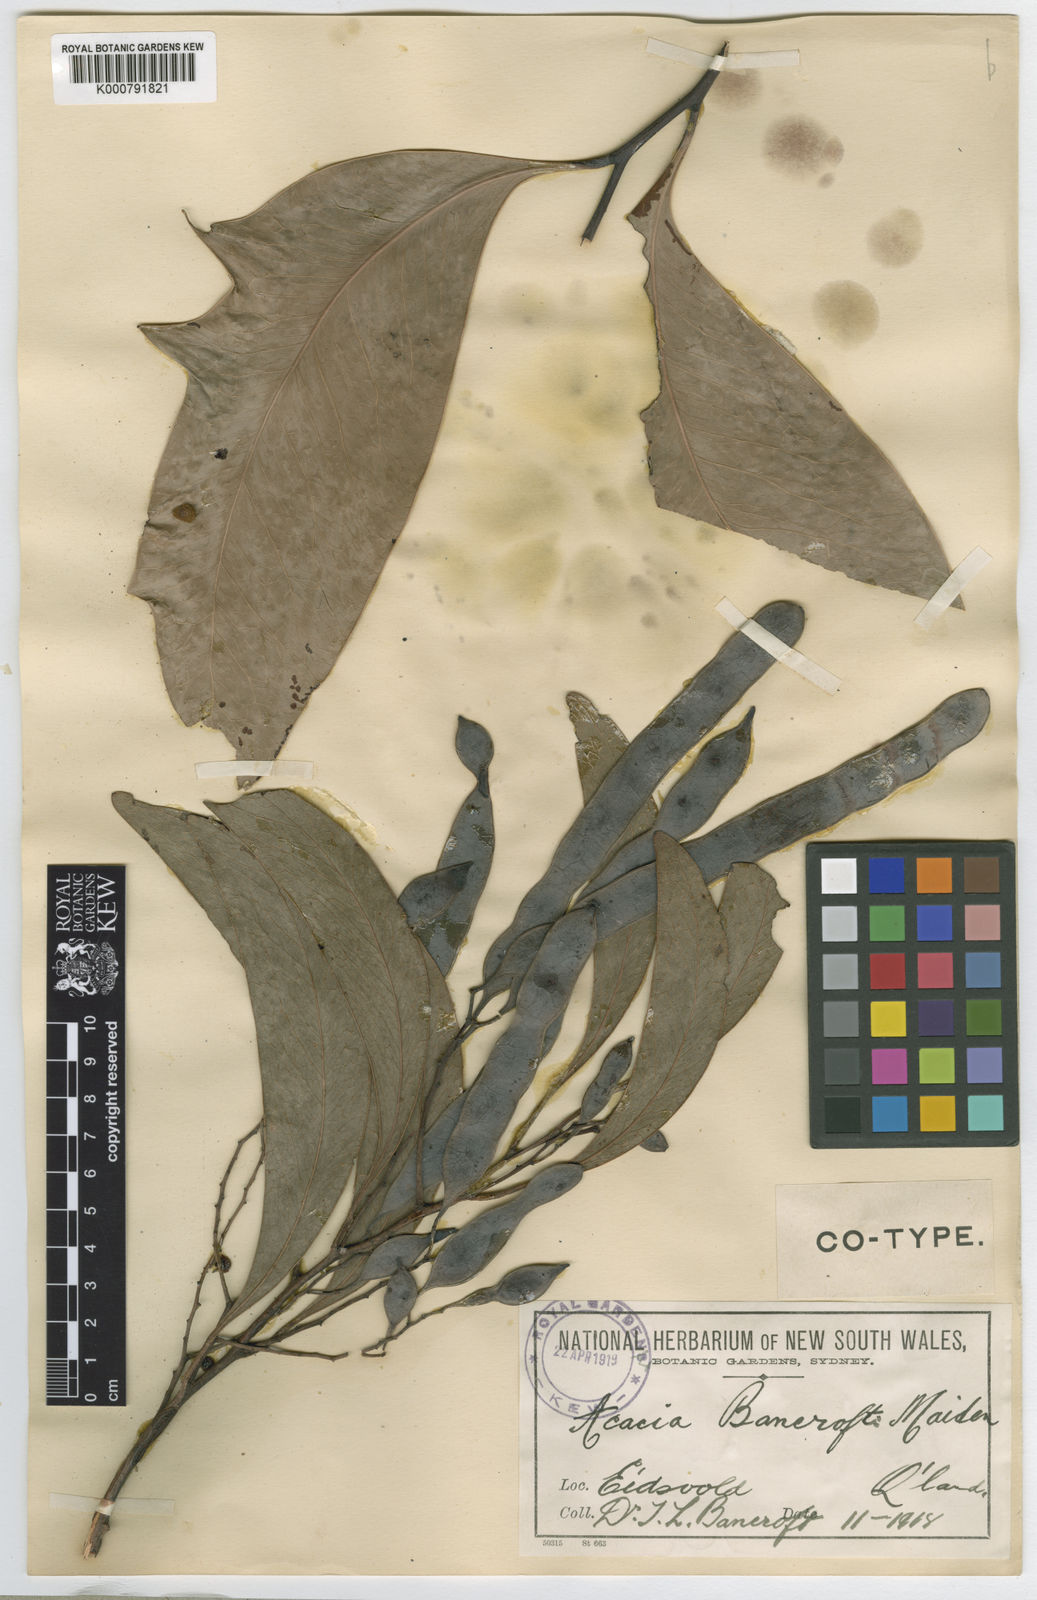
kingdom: Plantae
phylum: Tracheophyta
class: Magnoliopsida
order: Fabales
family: Fabaceae
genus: Acacia
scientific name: Acacia
